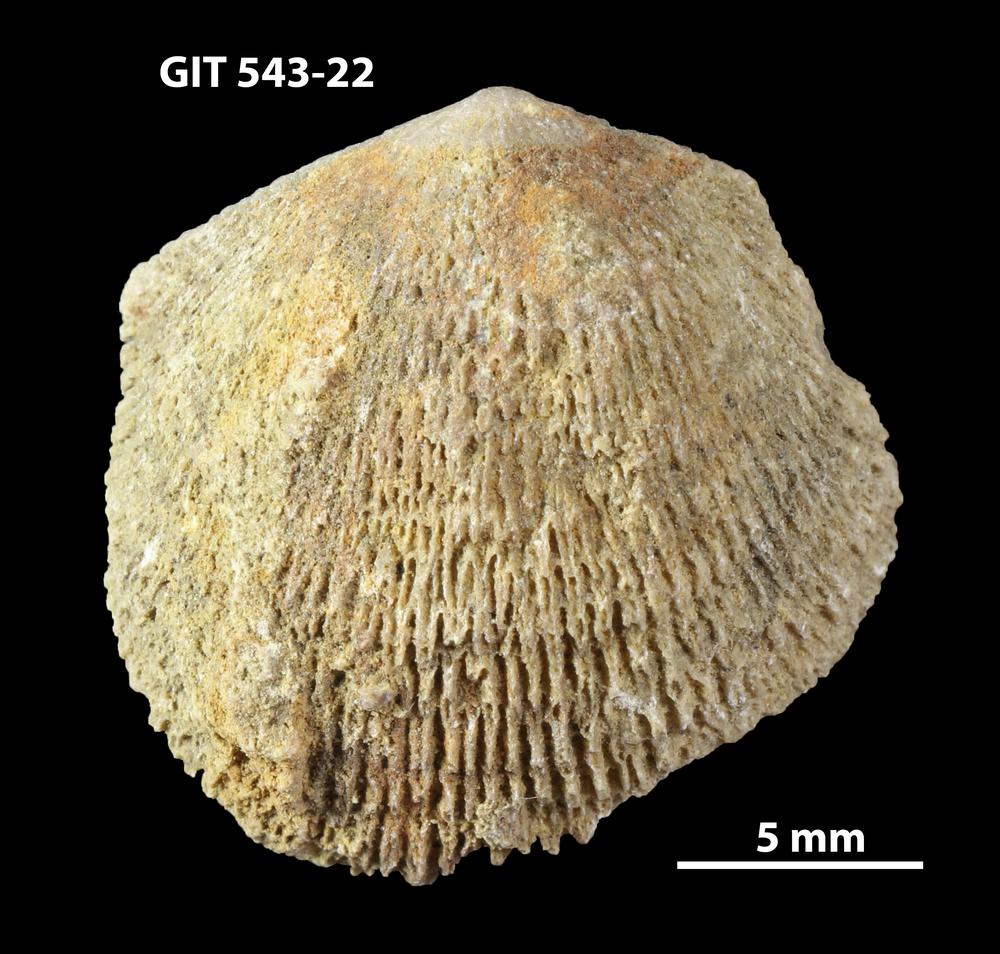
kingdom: Animalia
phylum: Brachiopoda
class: Rhynchonellata
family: Clitambonitidae
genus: Clitambonites
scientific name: Clitambonites
